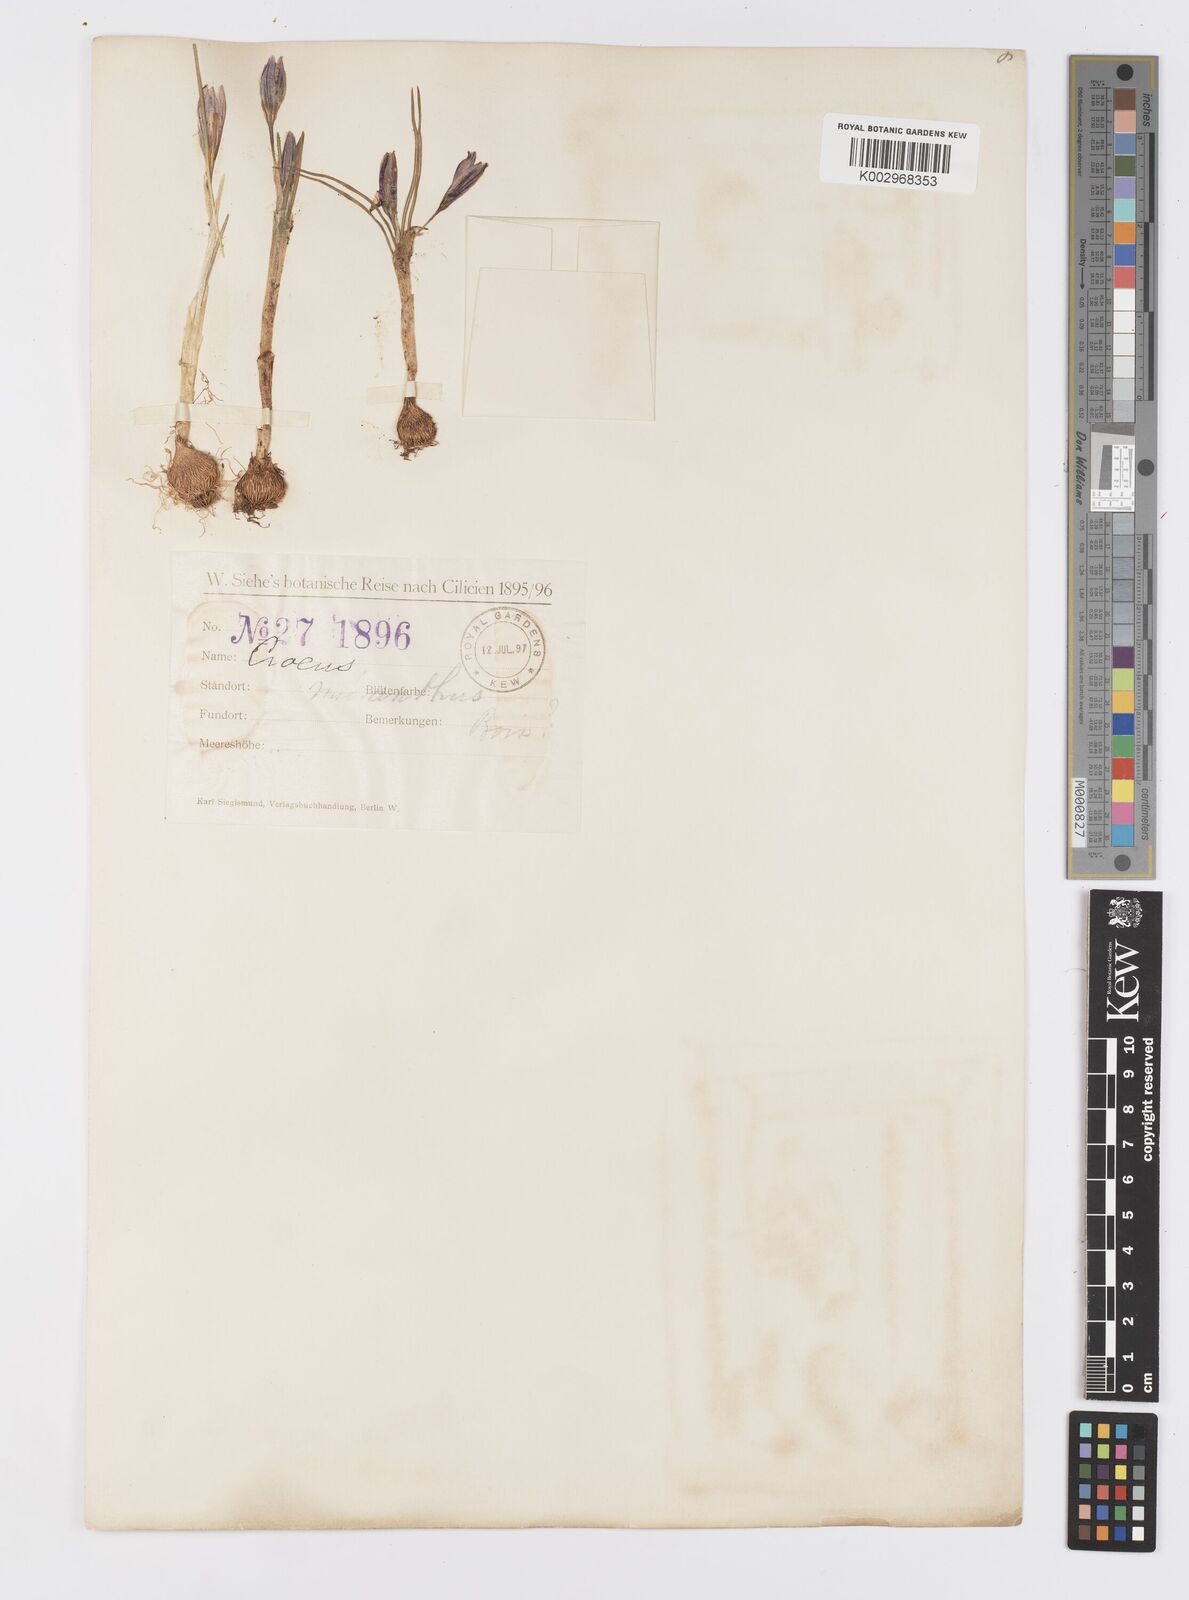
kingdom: Plantae
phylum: Tracheophyta
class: Liliopsida
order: Asparagales
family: Iridaceae
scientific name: Iridaceae
